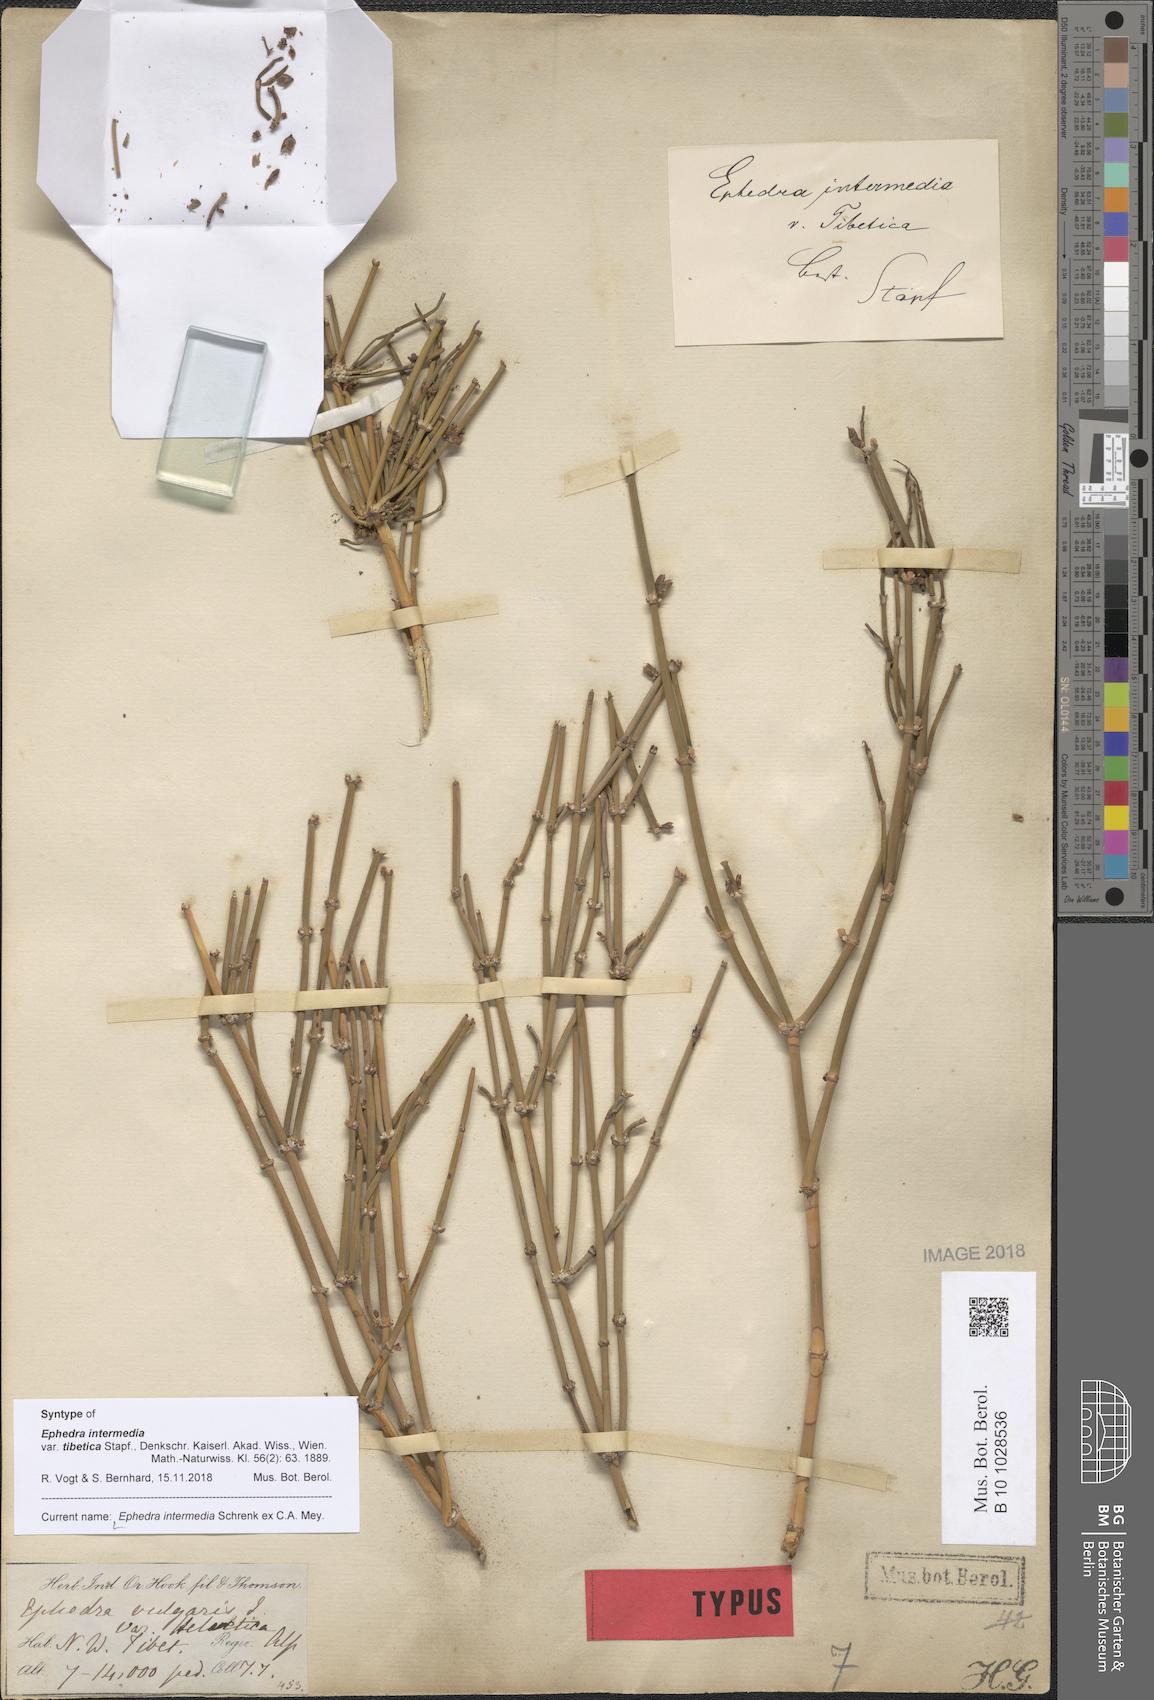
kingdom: Plantae
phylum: Tracheophyta
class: Gnetopsida
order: Ephedrales
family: Ephedraceae
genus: Ephedra
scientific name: Ephedra intermedia
